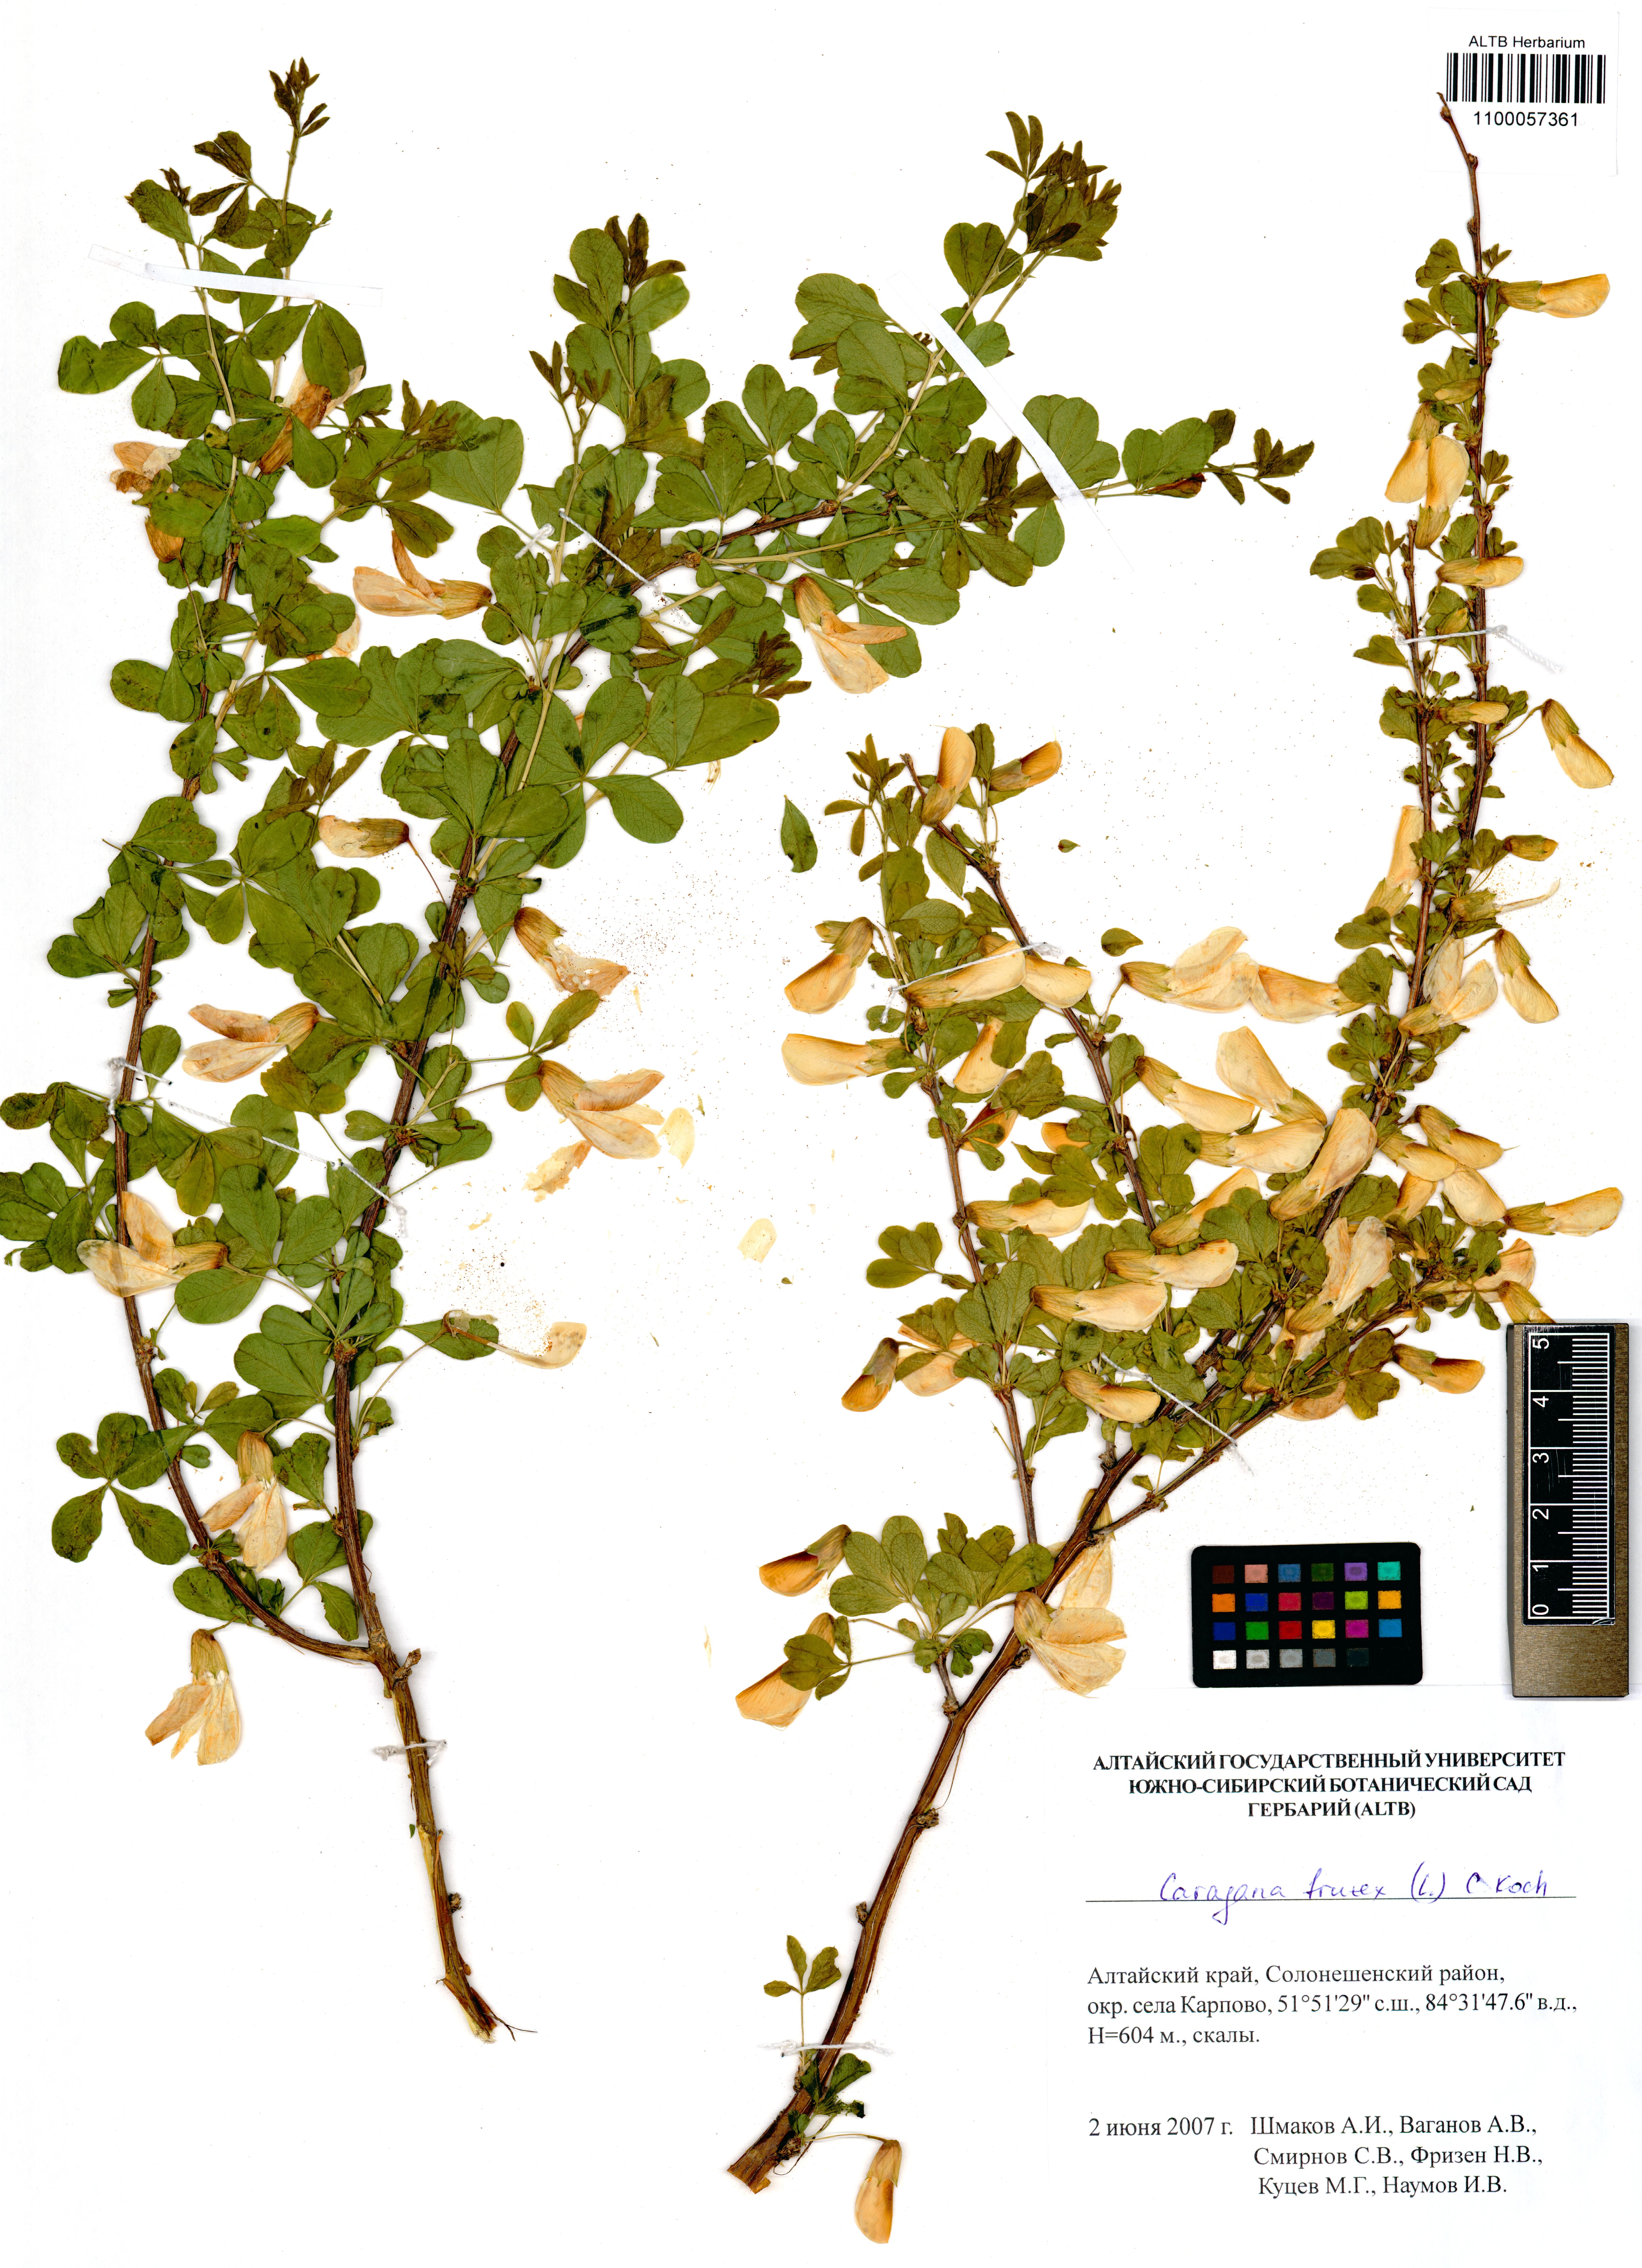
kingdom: Plantae
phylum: Tracheophyta
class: Magnoliopsida
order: Fabales
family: Fabaceae
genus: Caragana
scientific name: Caragana frutex
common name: Russian peashrub
